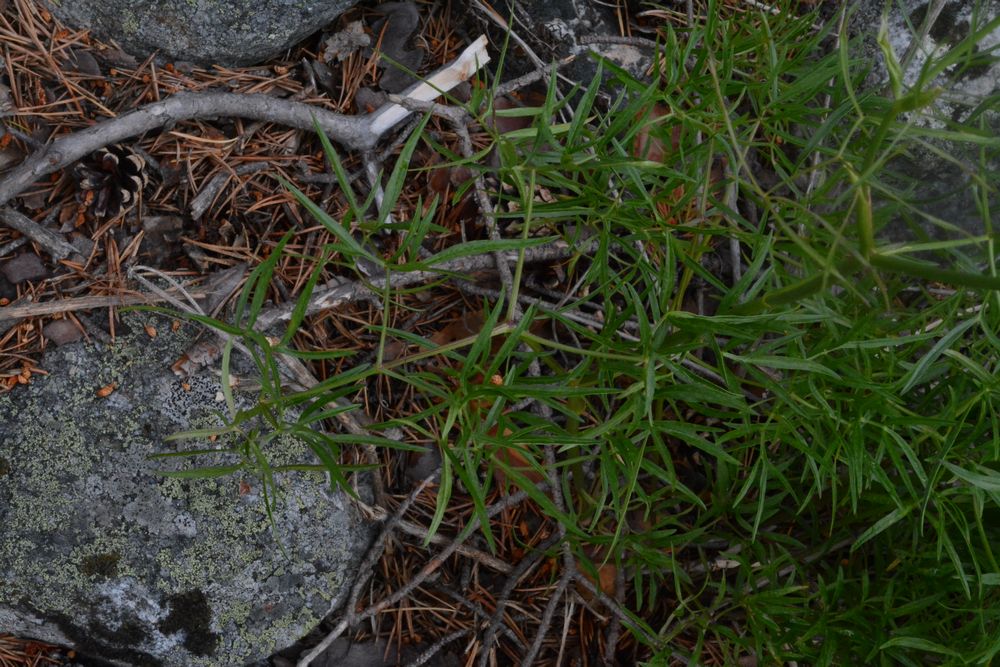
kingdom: Plantae
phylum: Tracheophyta
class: Magnoliopsida
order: Apiales
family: Apiaceae
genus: Cenolophium
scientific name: Cenolophium fischeri
